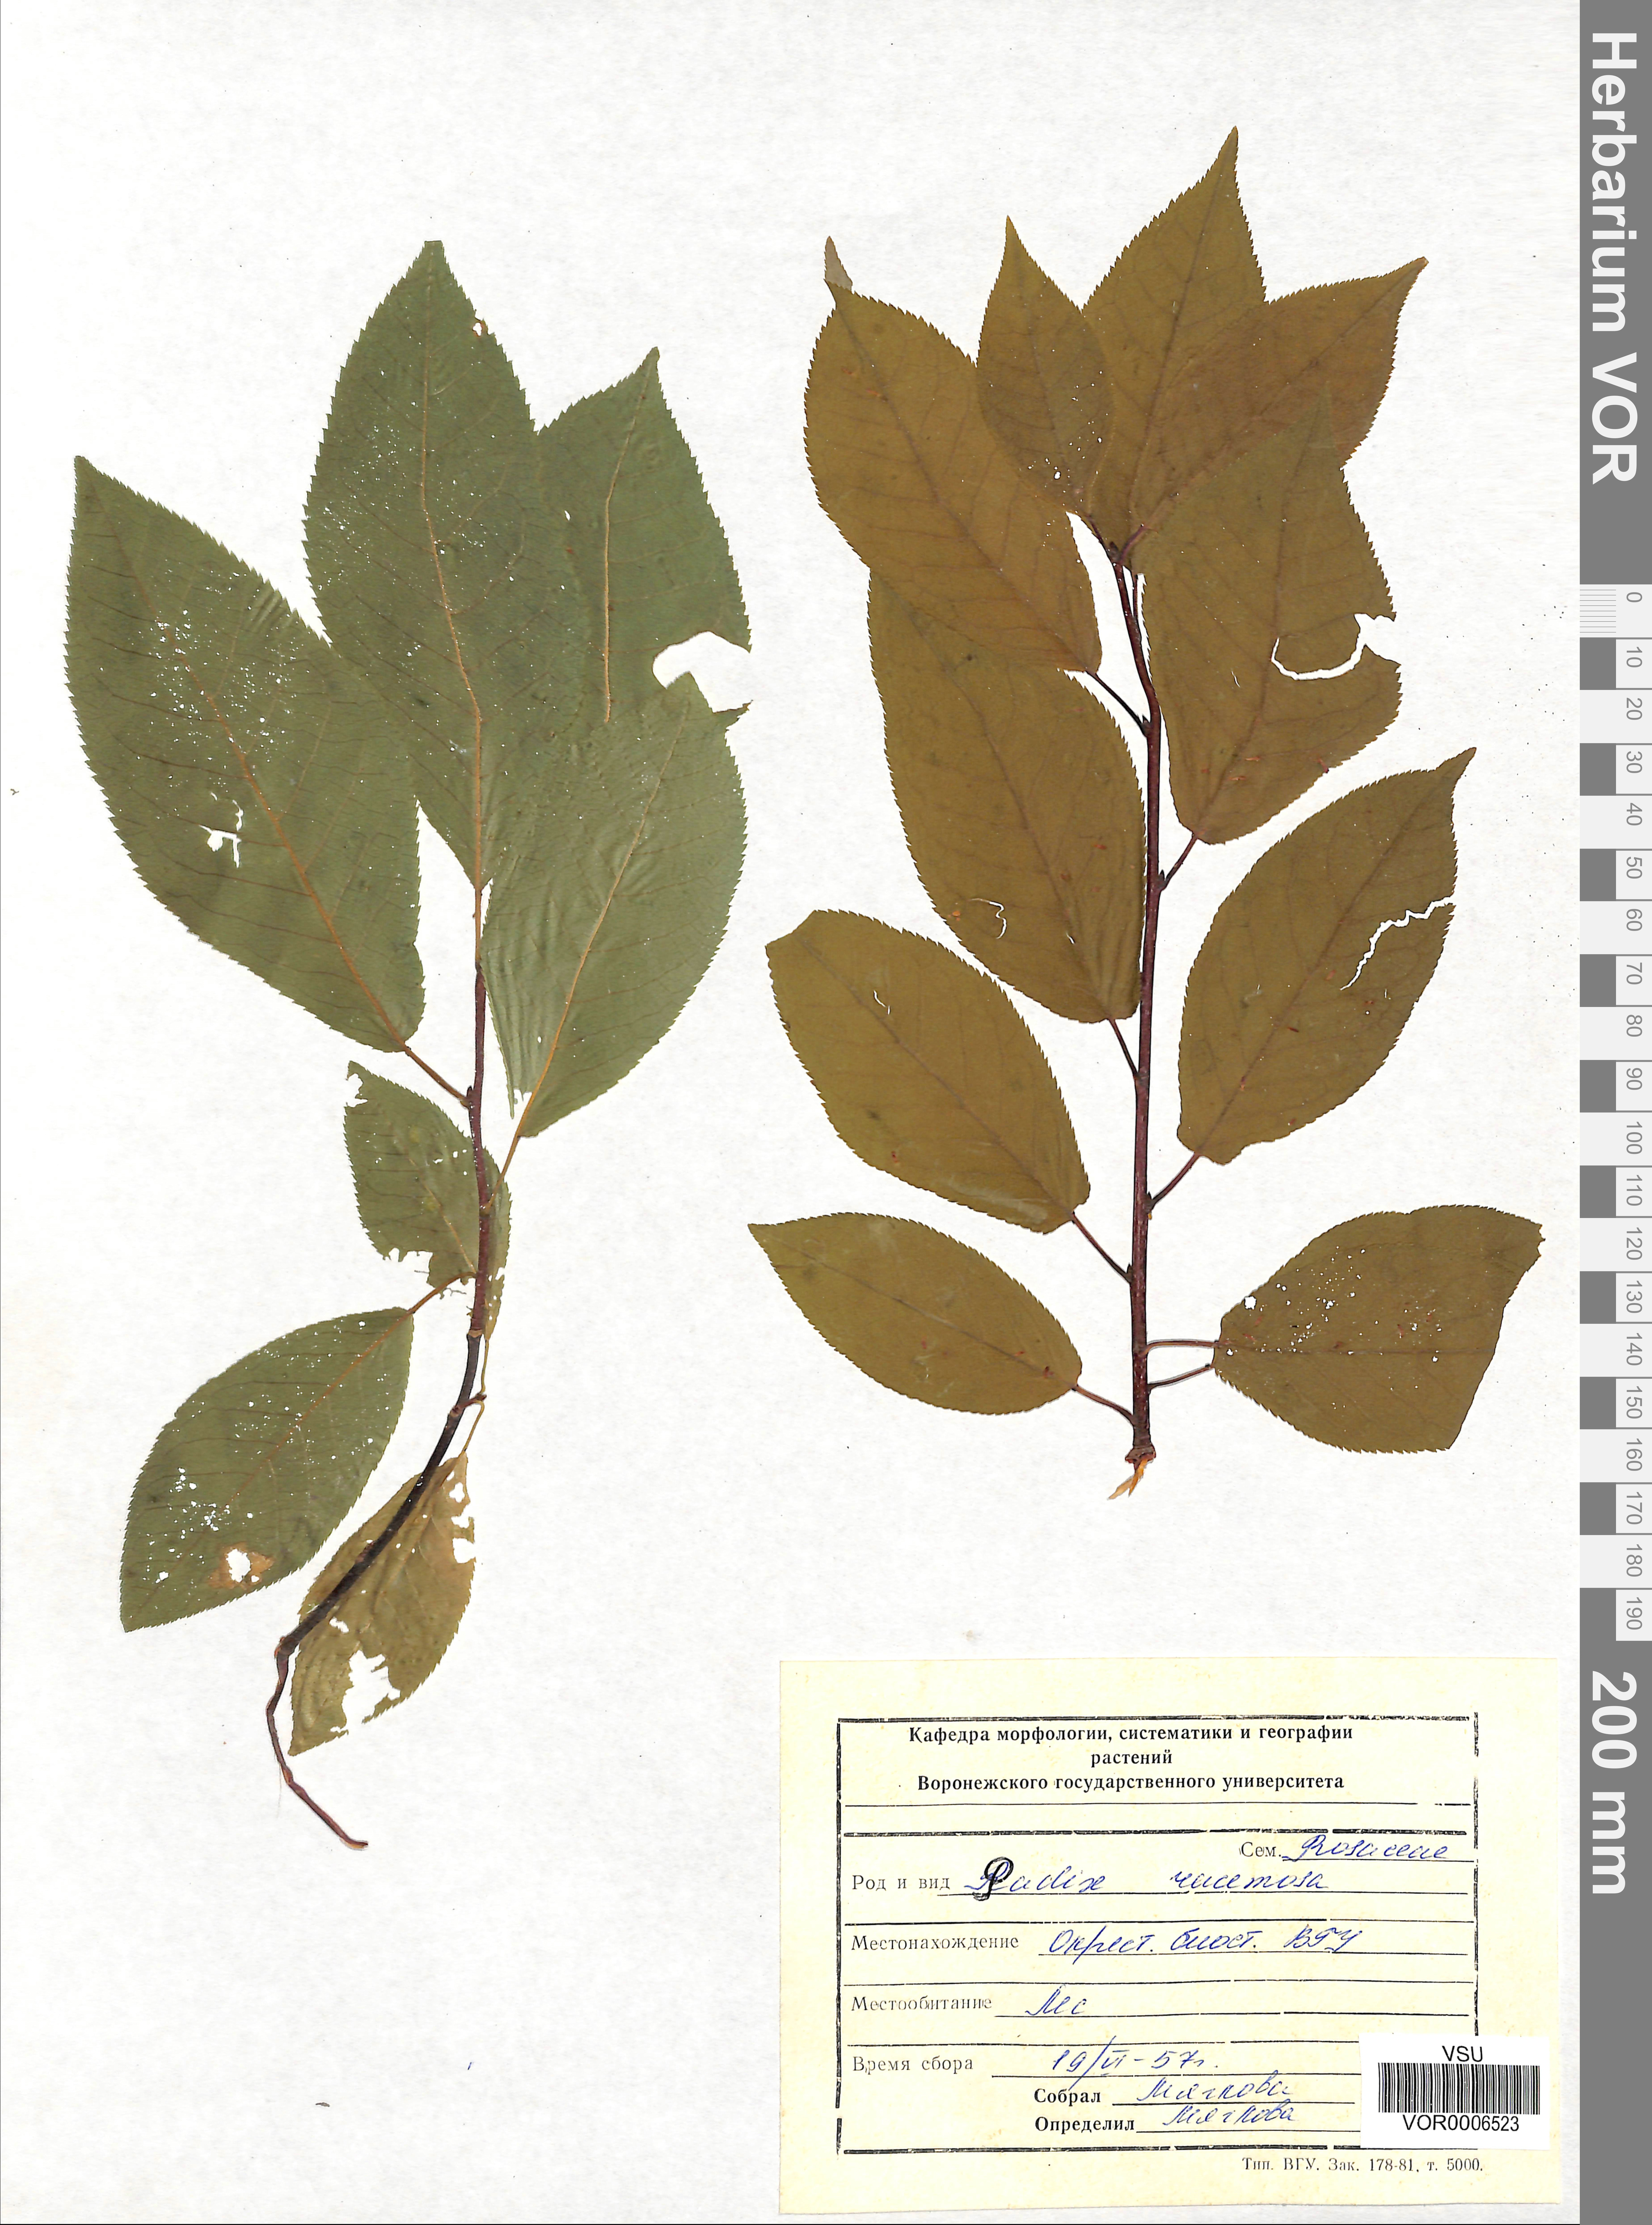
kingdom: Plantae
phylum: Tracheophyta
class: Magnoliopsida
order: Rosales
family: Rosaceae
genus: Prunus
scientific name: Prunus padus
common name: Bird cherry
